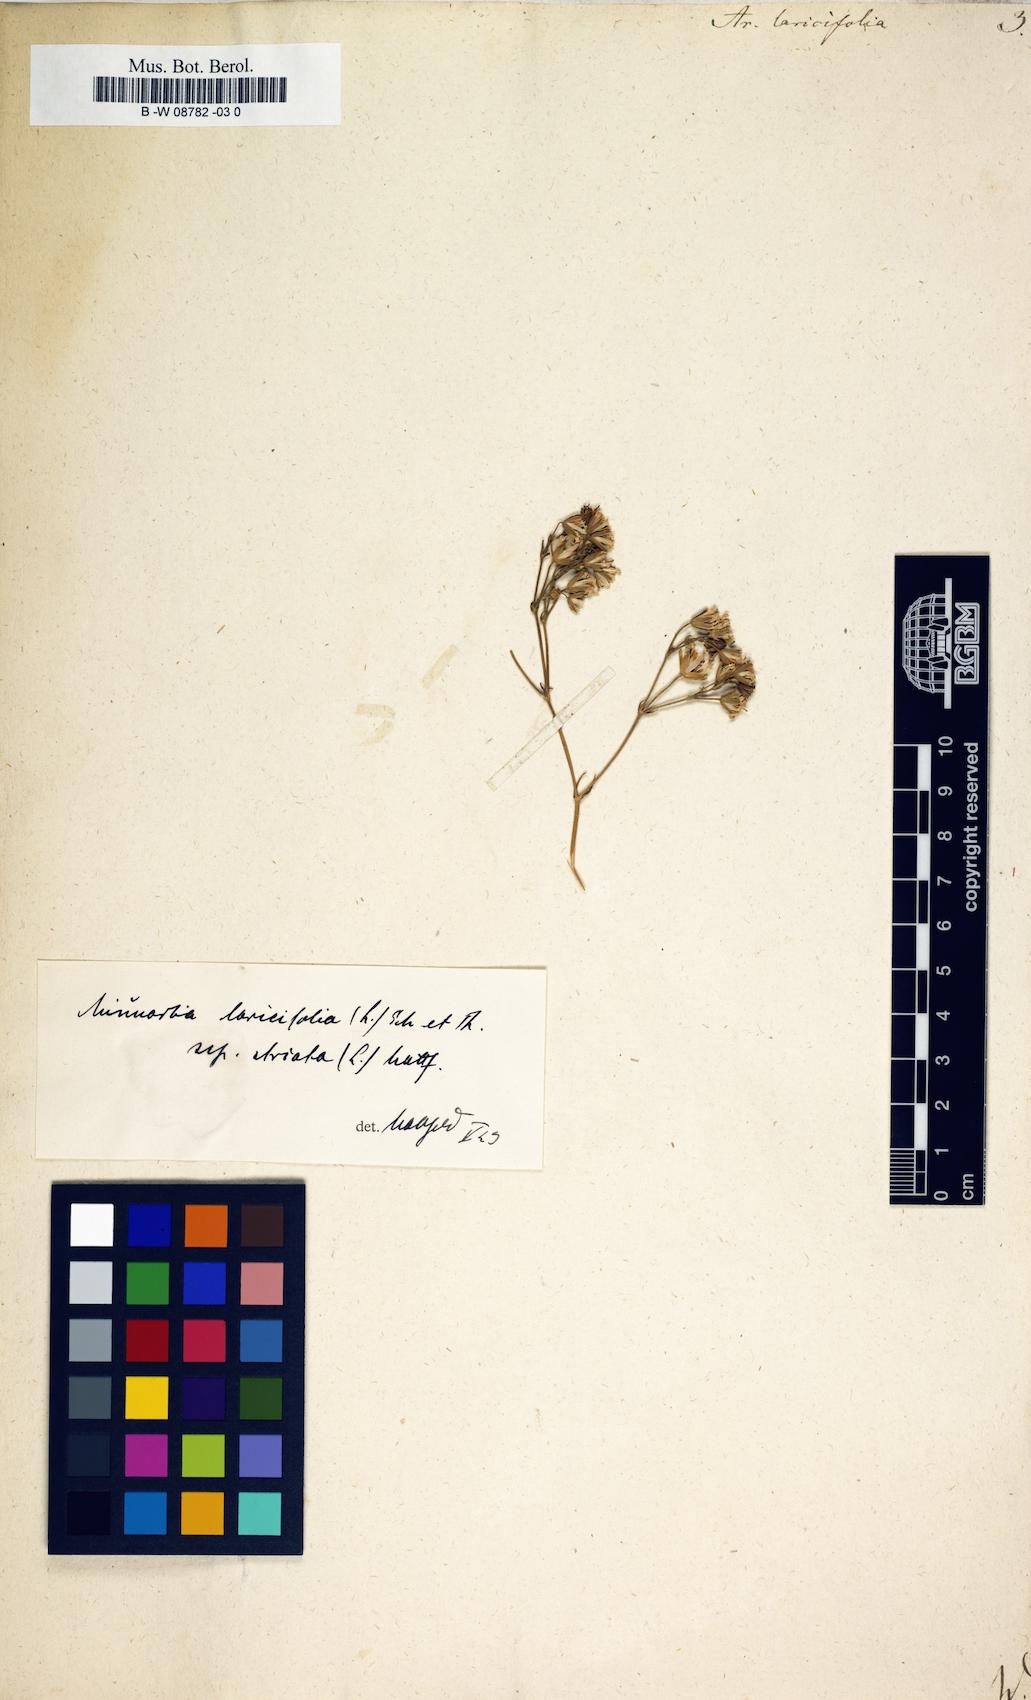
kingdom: Plantae
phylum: Tracheophyta
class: Magnoliopsida
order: Caryophyllales
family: Caryophyllaceae
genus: Cherleria
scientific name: Cherleria laricifolia
